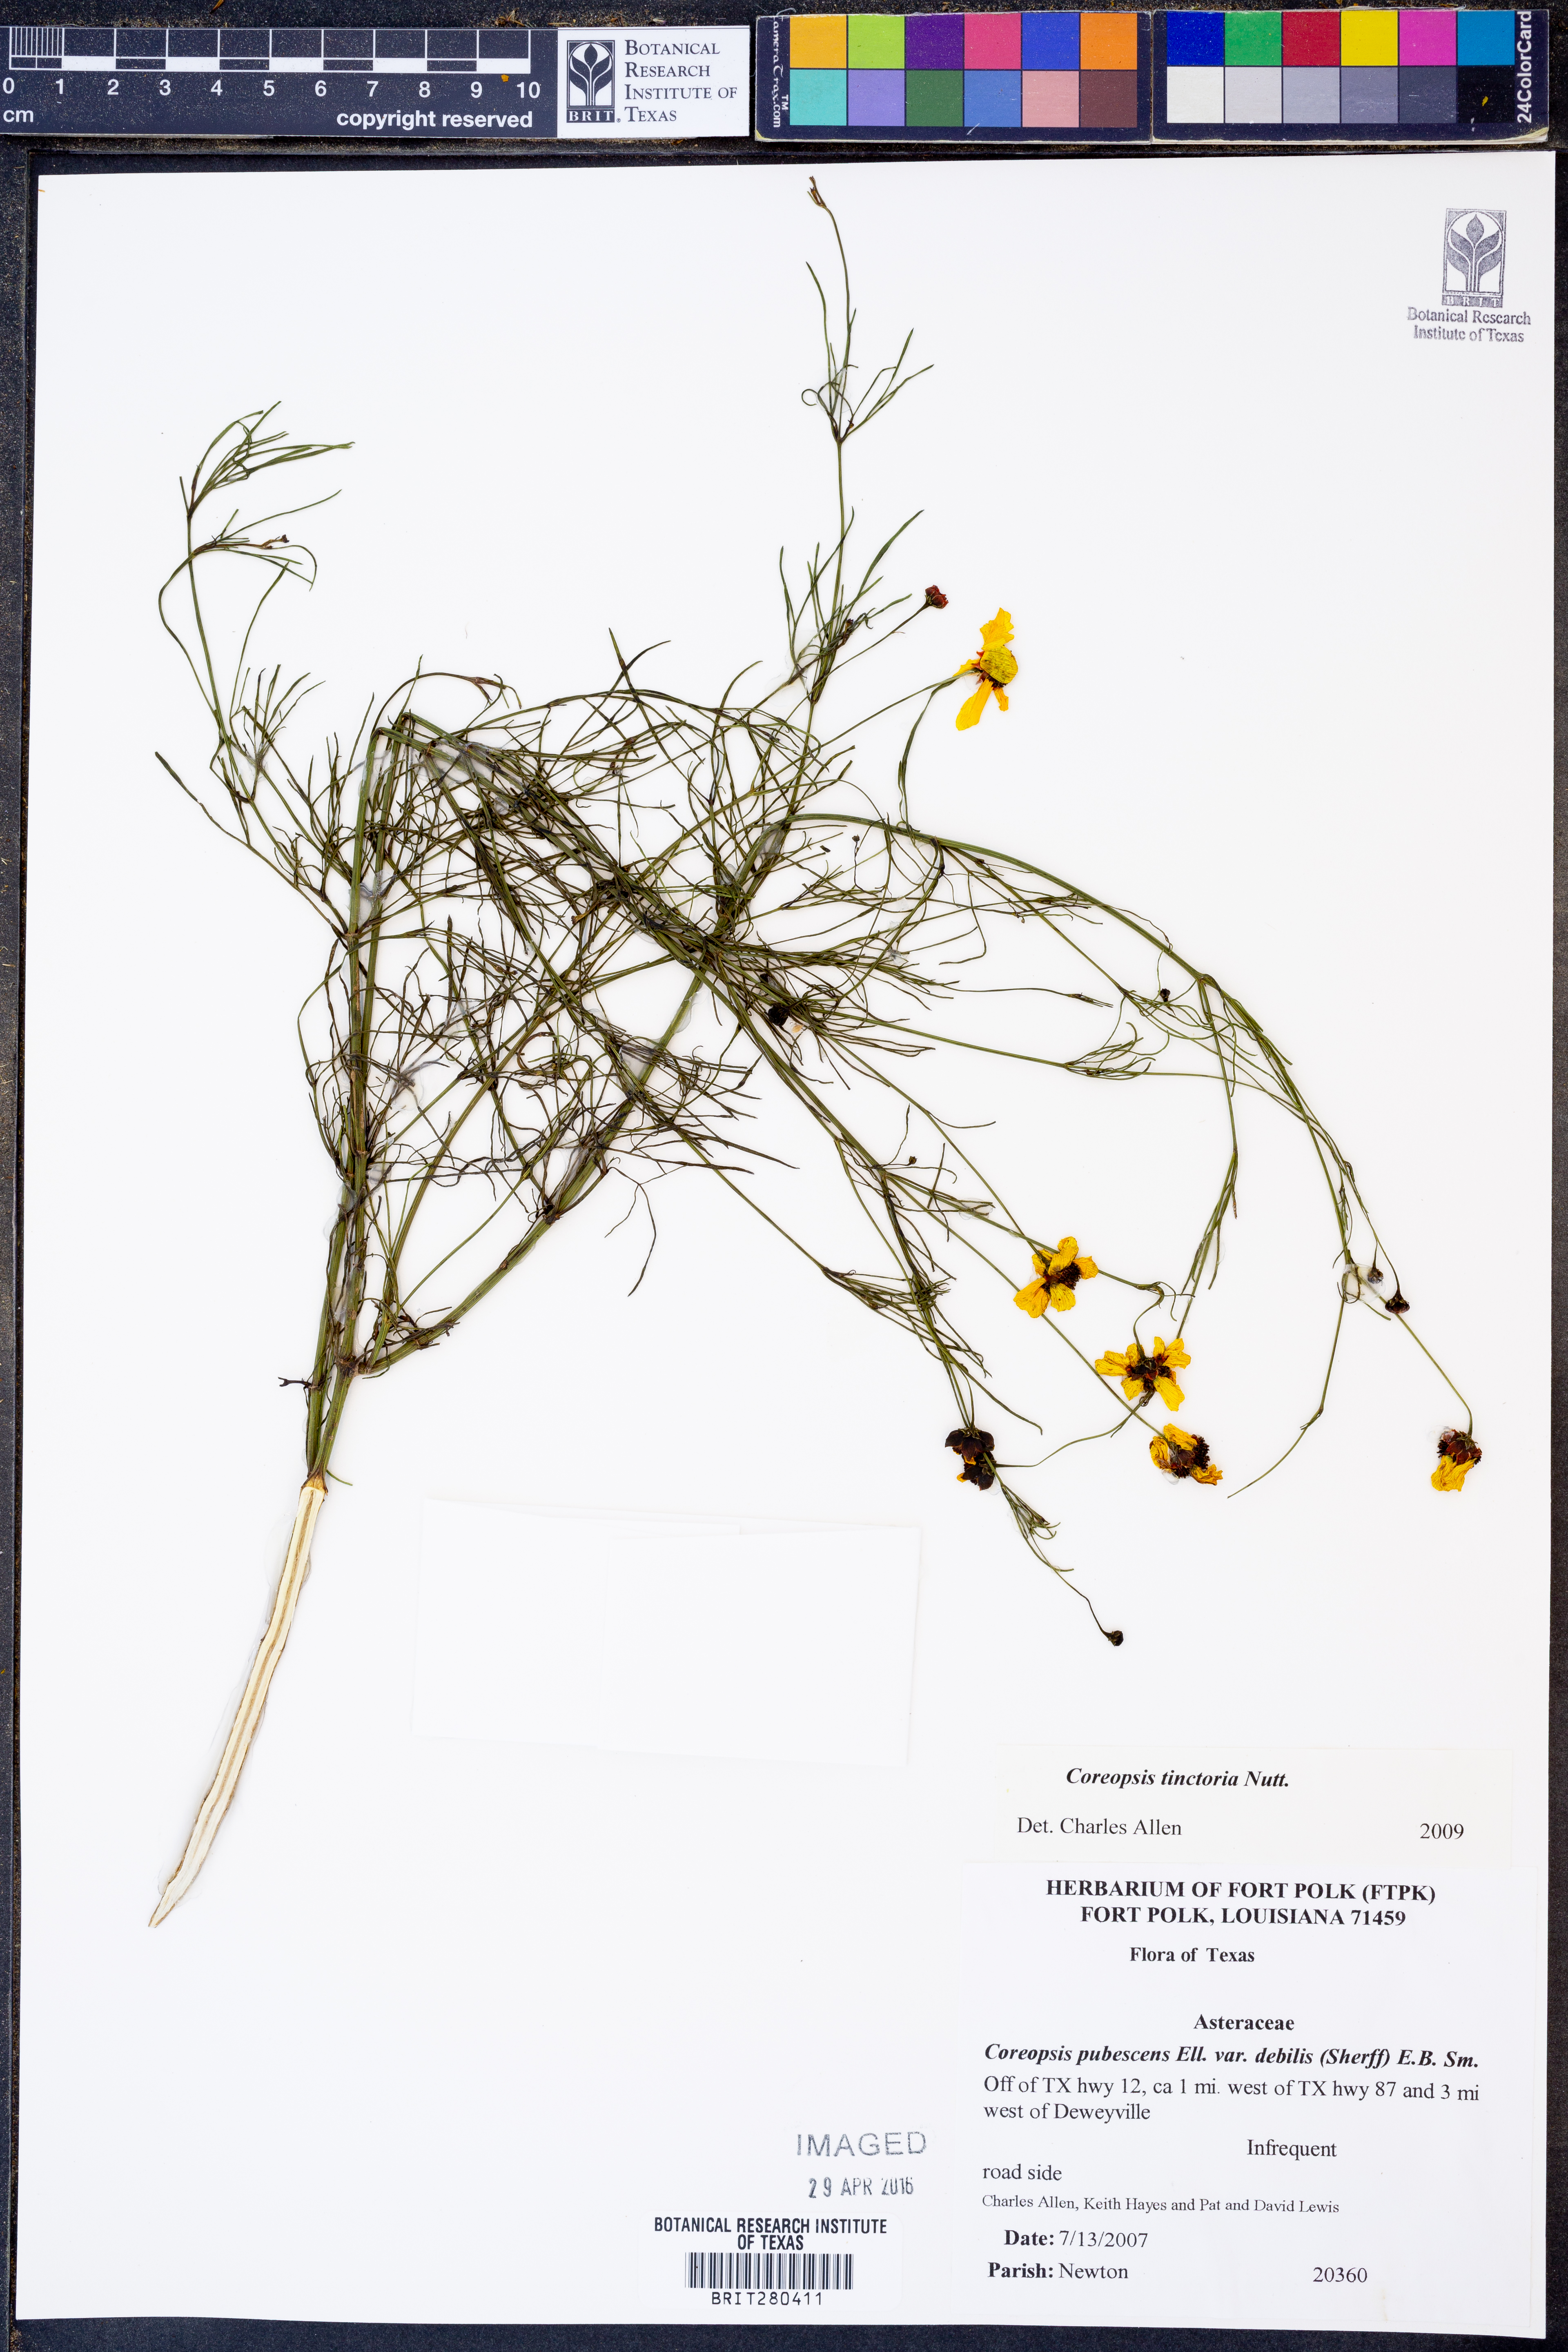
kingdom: Plantae
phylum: Tracheophyta
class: Magnoliopsida
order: Asterales
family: Asteraceae
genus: Coreopsis
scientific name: Coreopsis tinctoria
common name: Garden tickseed
